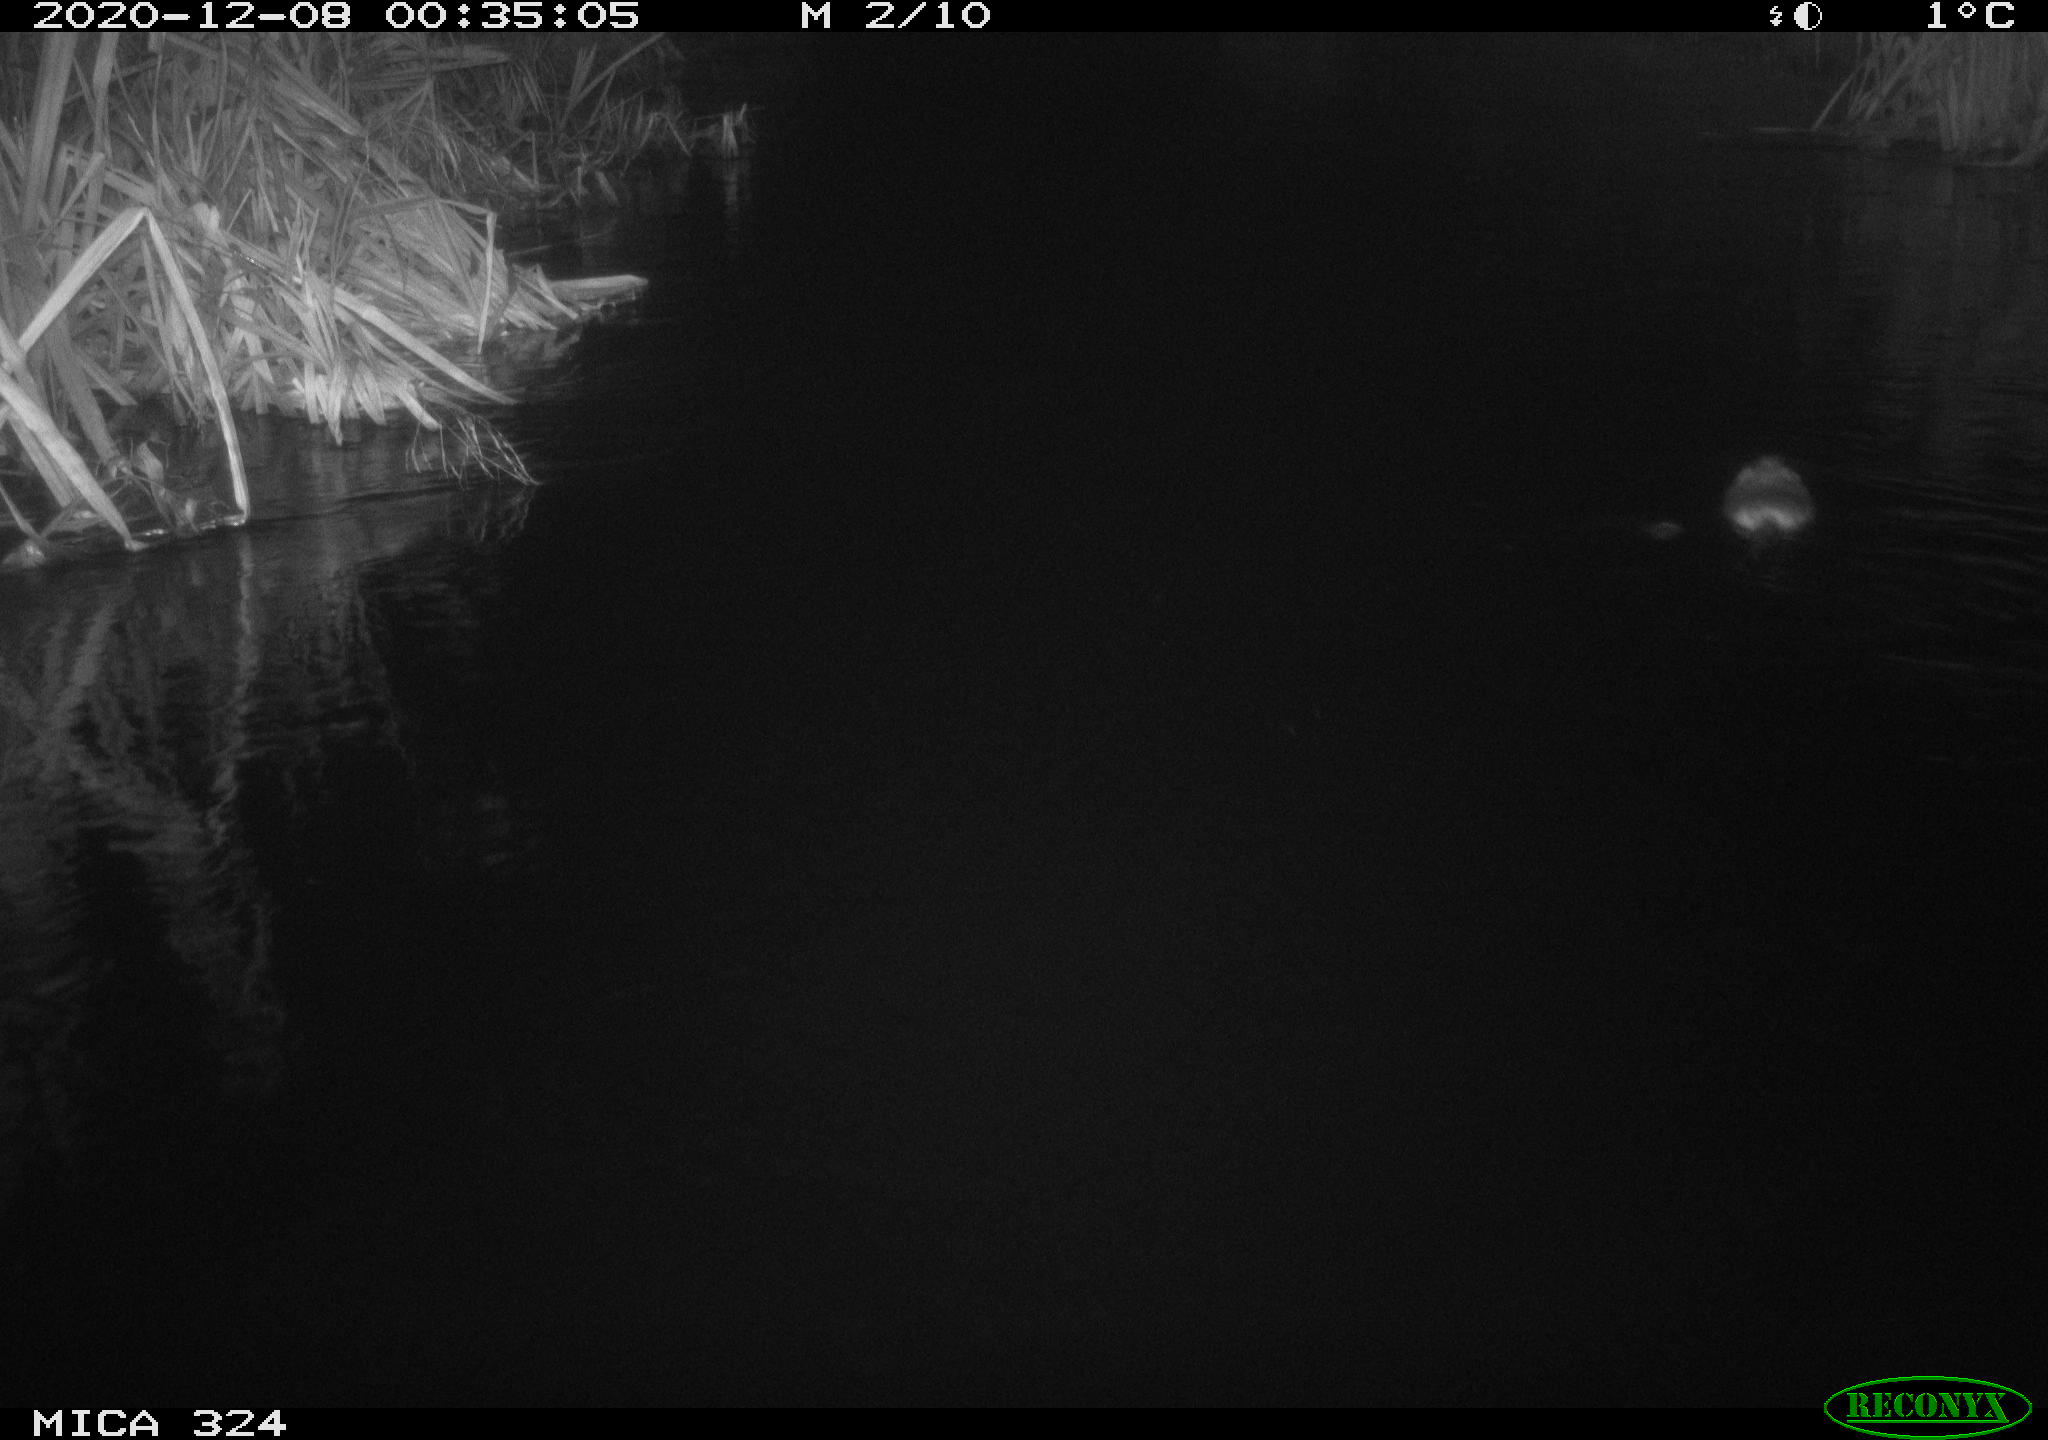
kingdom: Animalia
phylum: Chordata
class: Mammalia
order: Rodentia
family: Myocastoridae
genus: Myocastor
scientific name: Myocastor coypus
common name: Coypu
